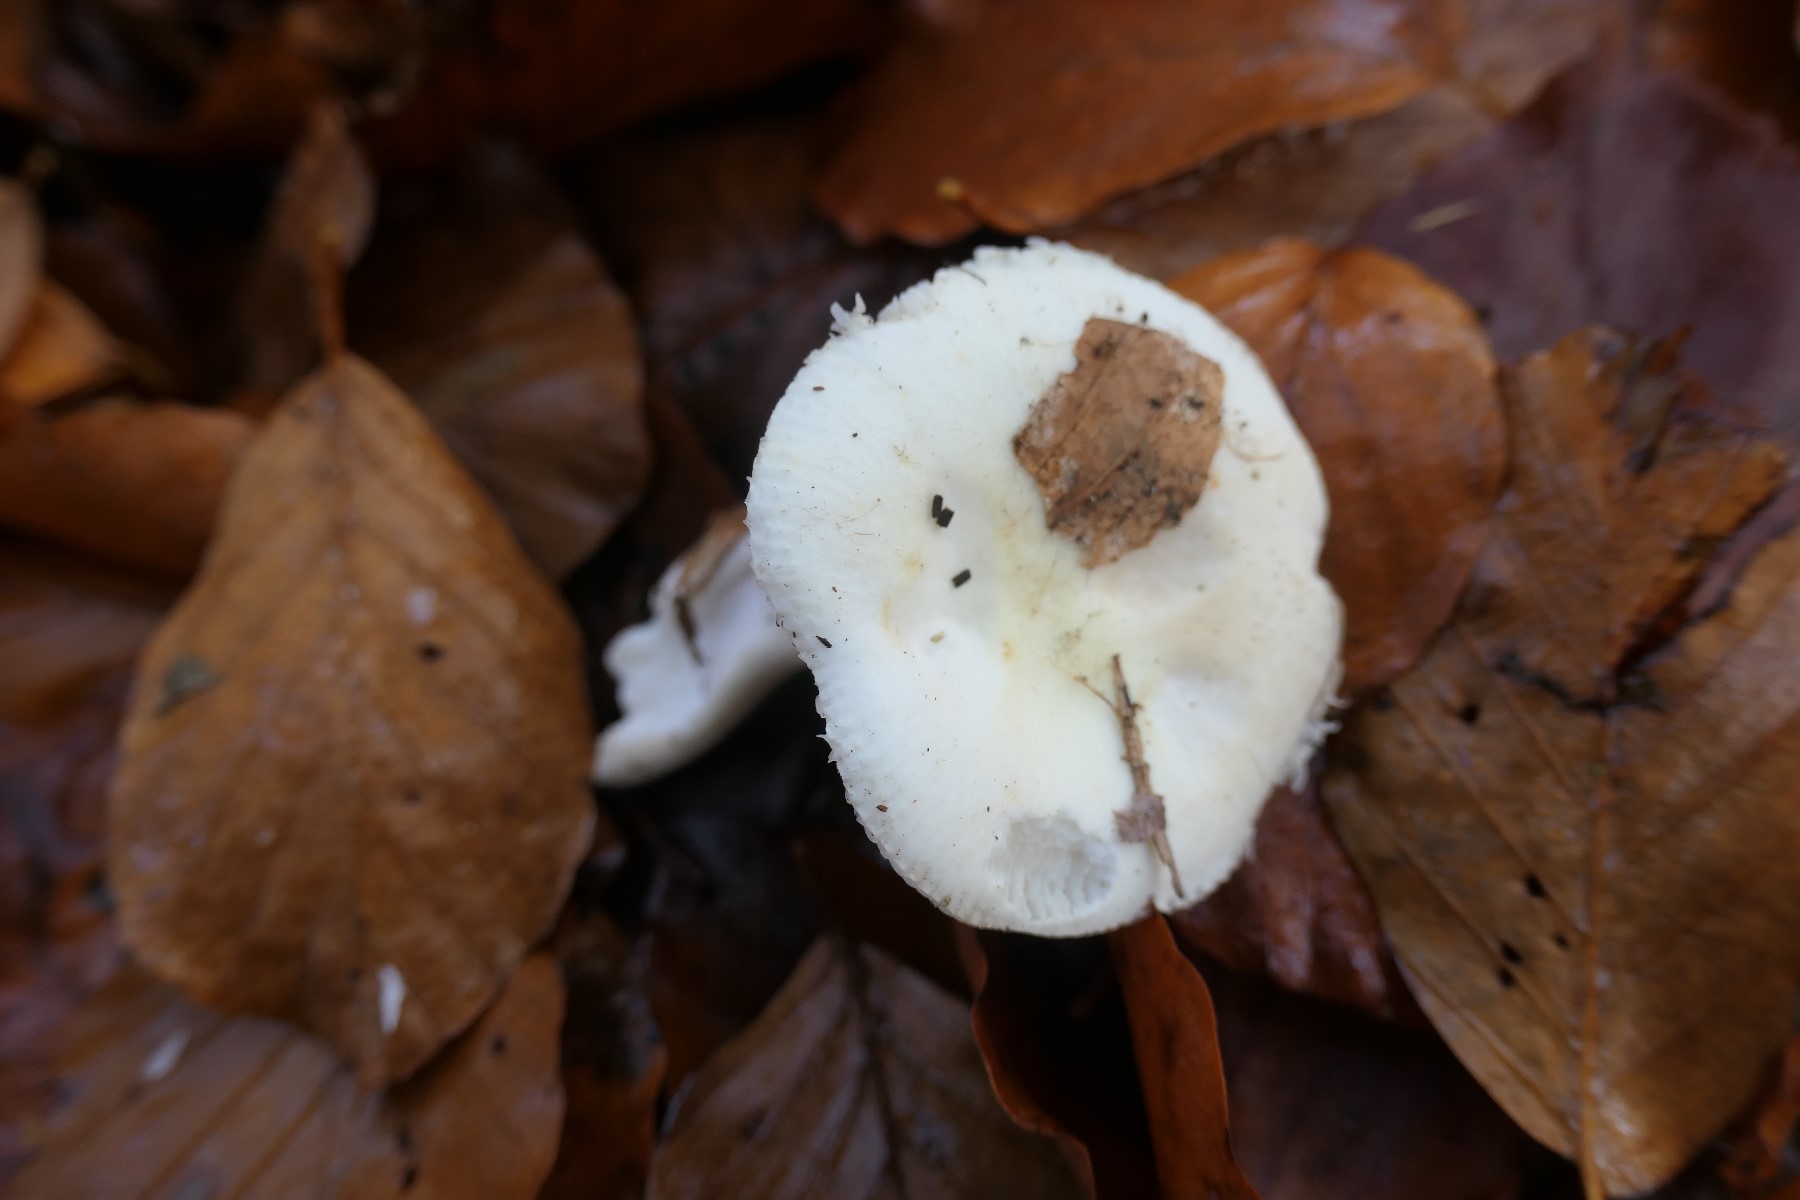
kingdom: Fungi
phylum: Basidiomycota
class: Agaricomycetes
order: Russulales
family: Russulaceae
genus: Russula
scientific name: Russula solaris
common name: sol-skørhat
